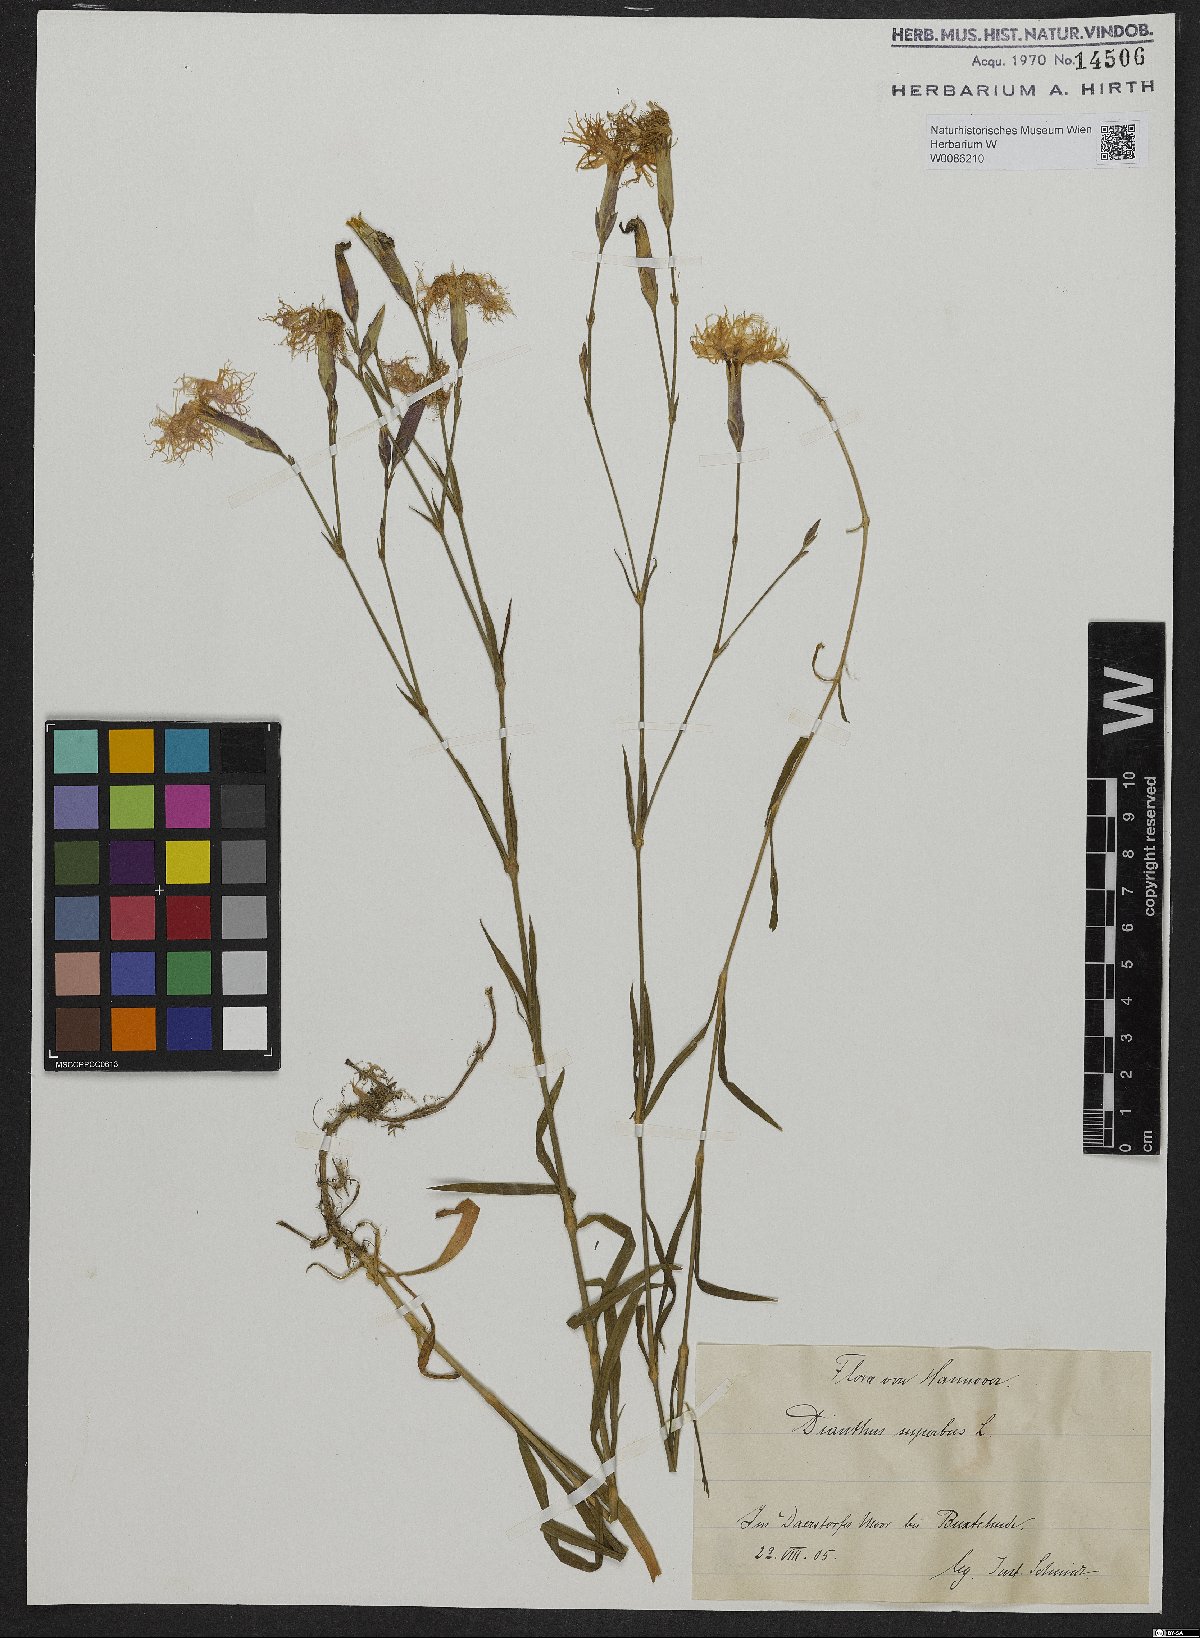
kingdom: Plantae
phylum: Tracheophyta
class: Magnoliopsida
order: Caryophyllales
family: Caryophyllaceae
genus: Dianthus
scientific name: Dianthus superbus
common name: Fringed pink
